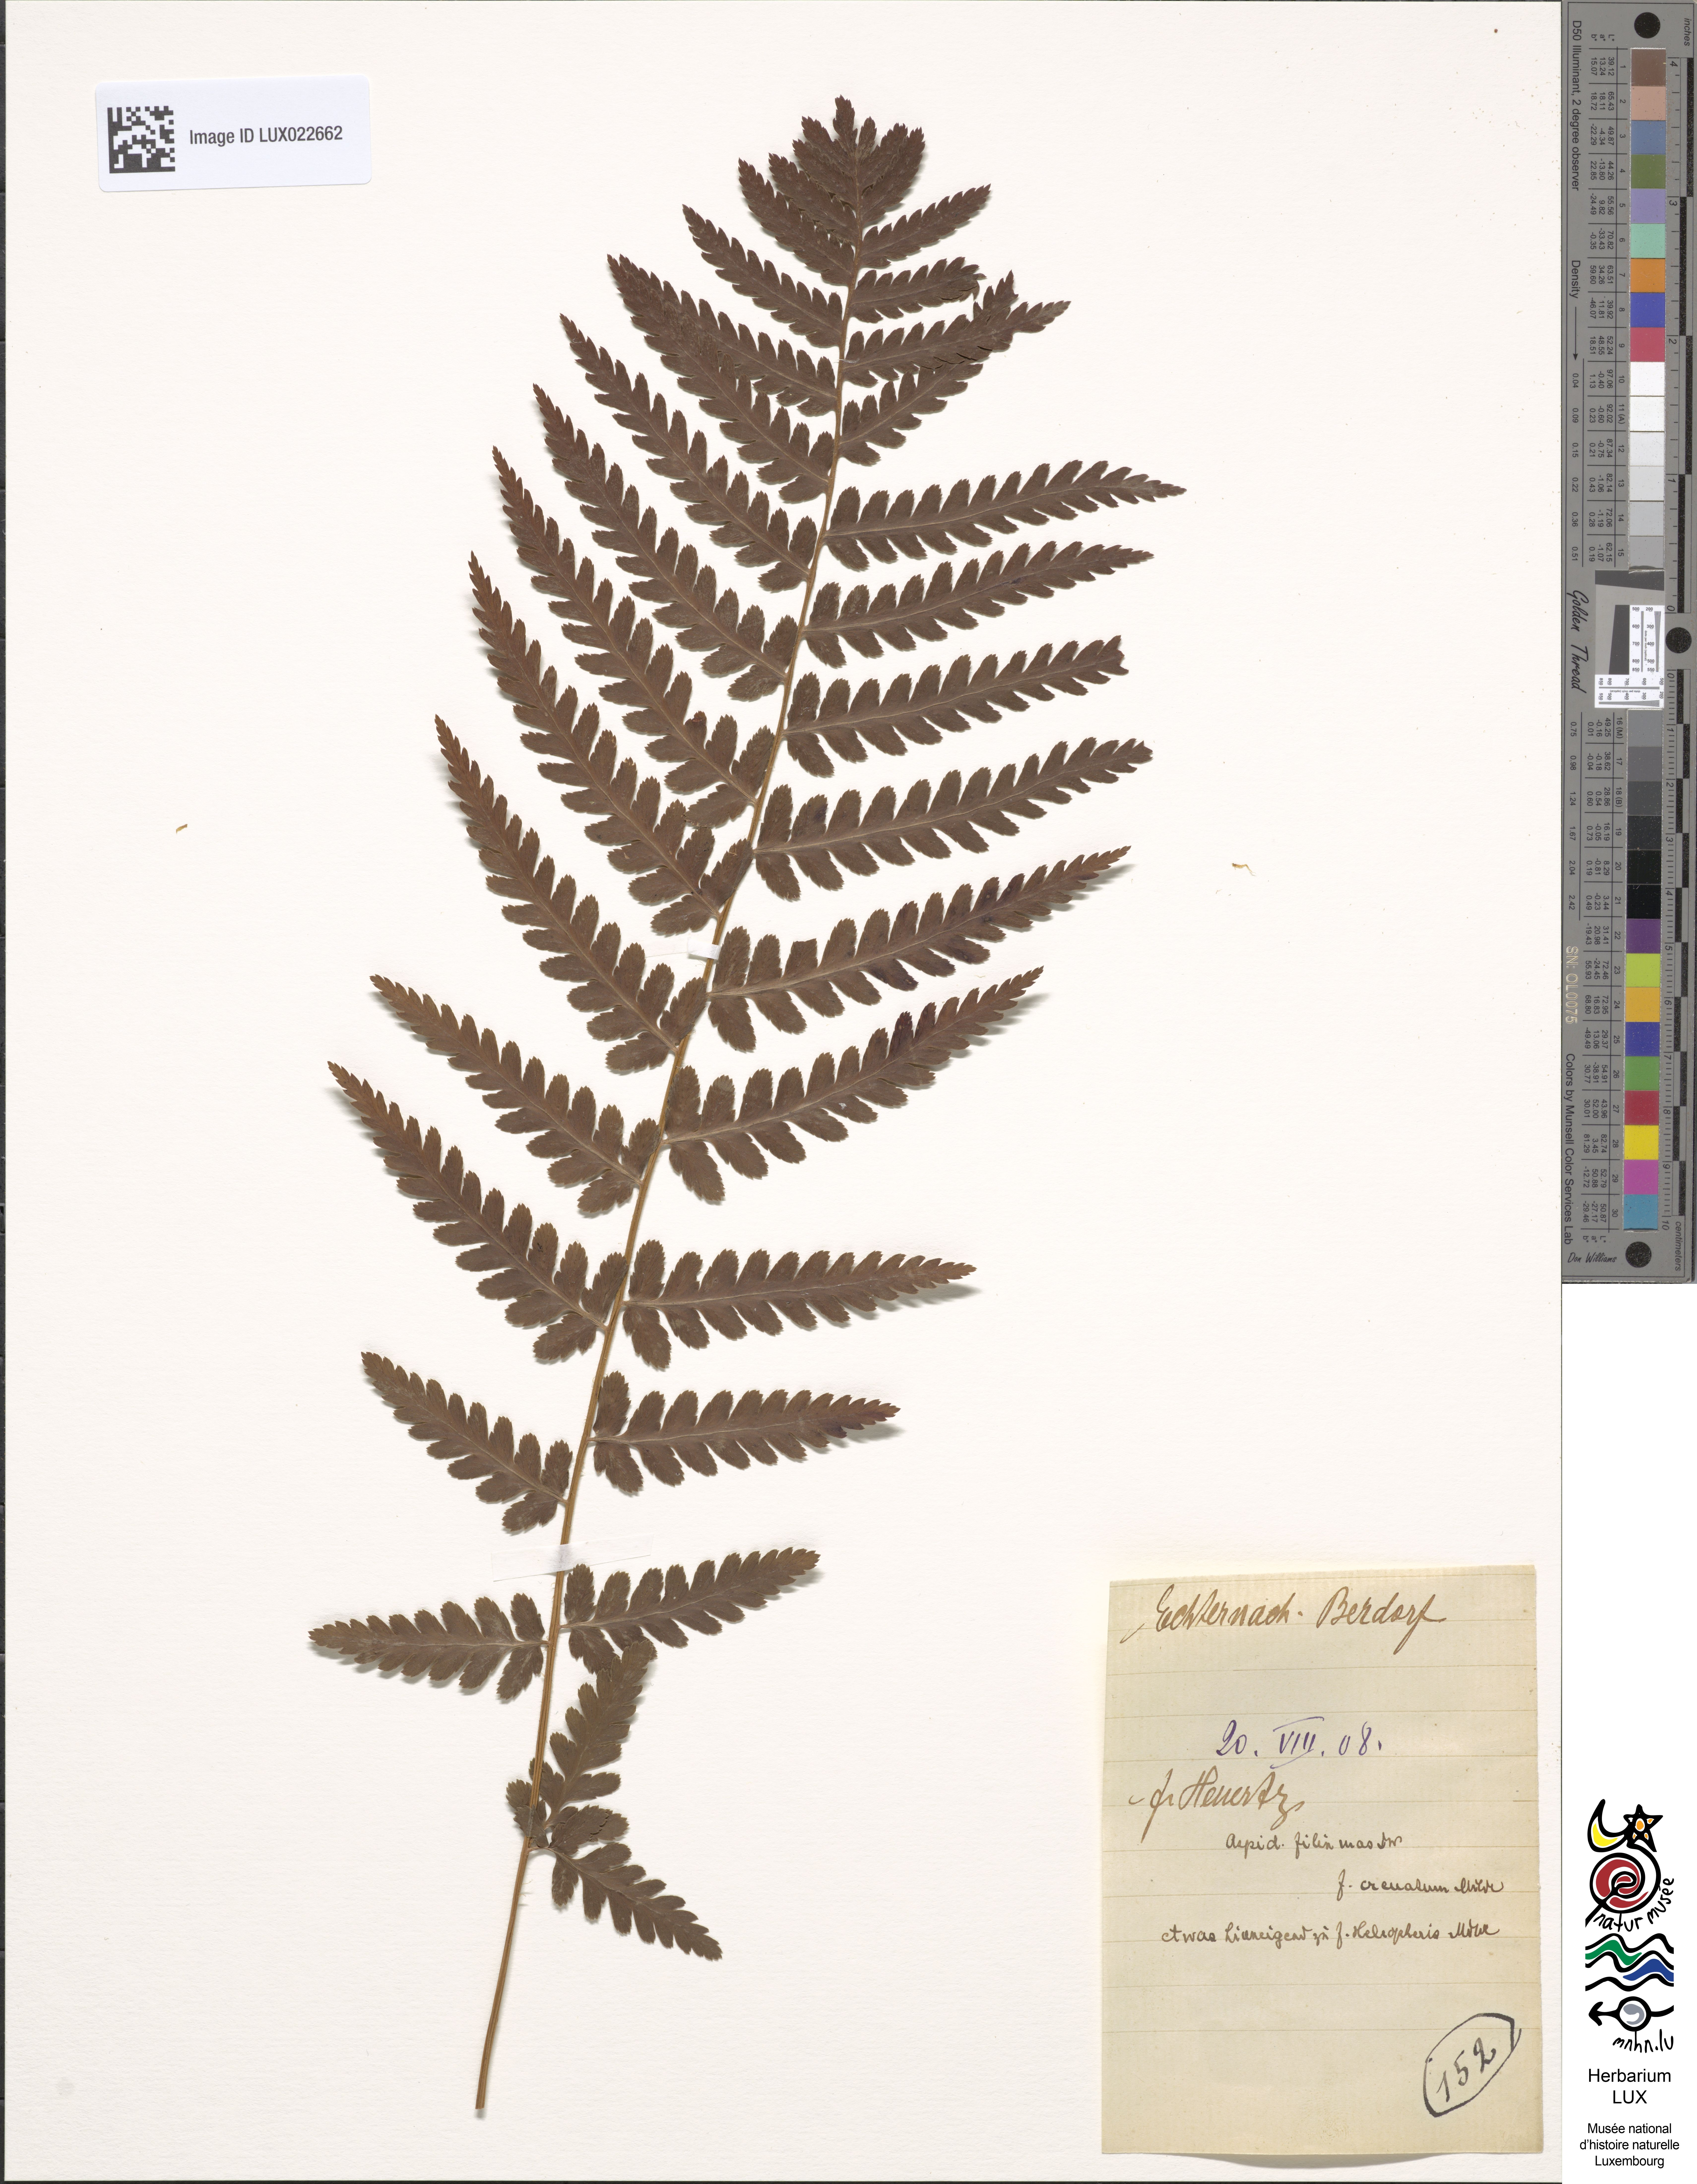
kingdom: Plantae
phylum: Tracheophyta
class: Polypodiopsida
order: Polypodiales
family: Dryopteridaceae
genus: Dryopteris
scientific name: Dryopteris filix-mas
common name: Male fern
